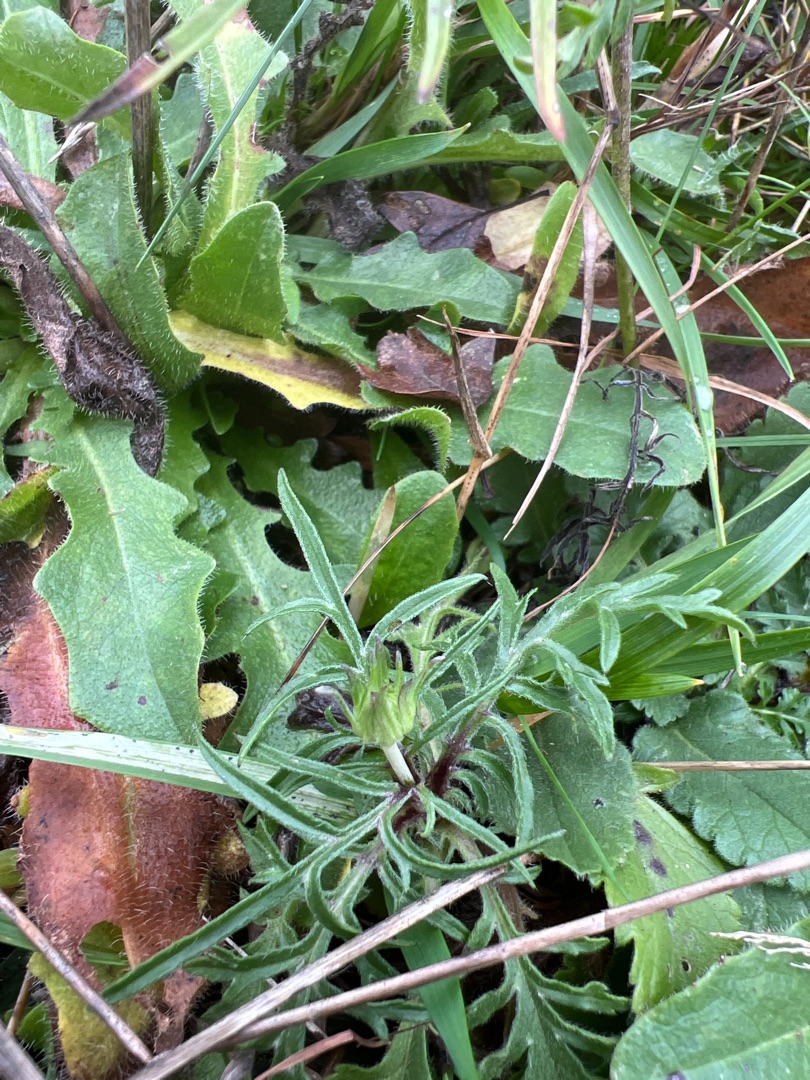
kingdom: Plantae
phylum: Tracheophyta
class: Magnoliopsida
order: Dipsacales
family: Caprifoliaceae
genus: Scabiosa
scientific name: Scabiosa columbaria
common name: Due-skabiose
